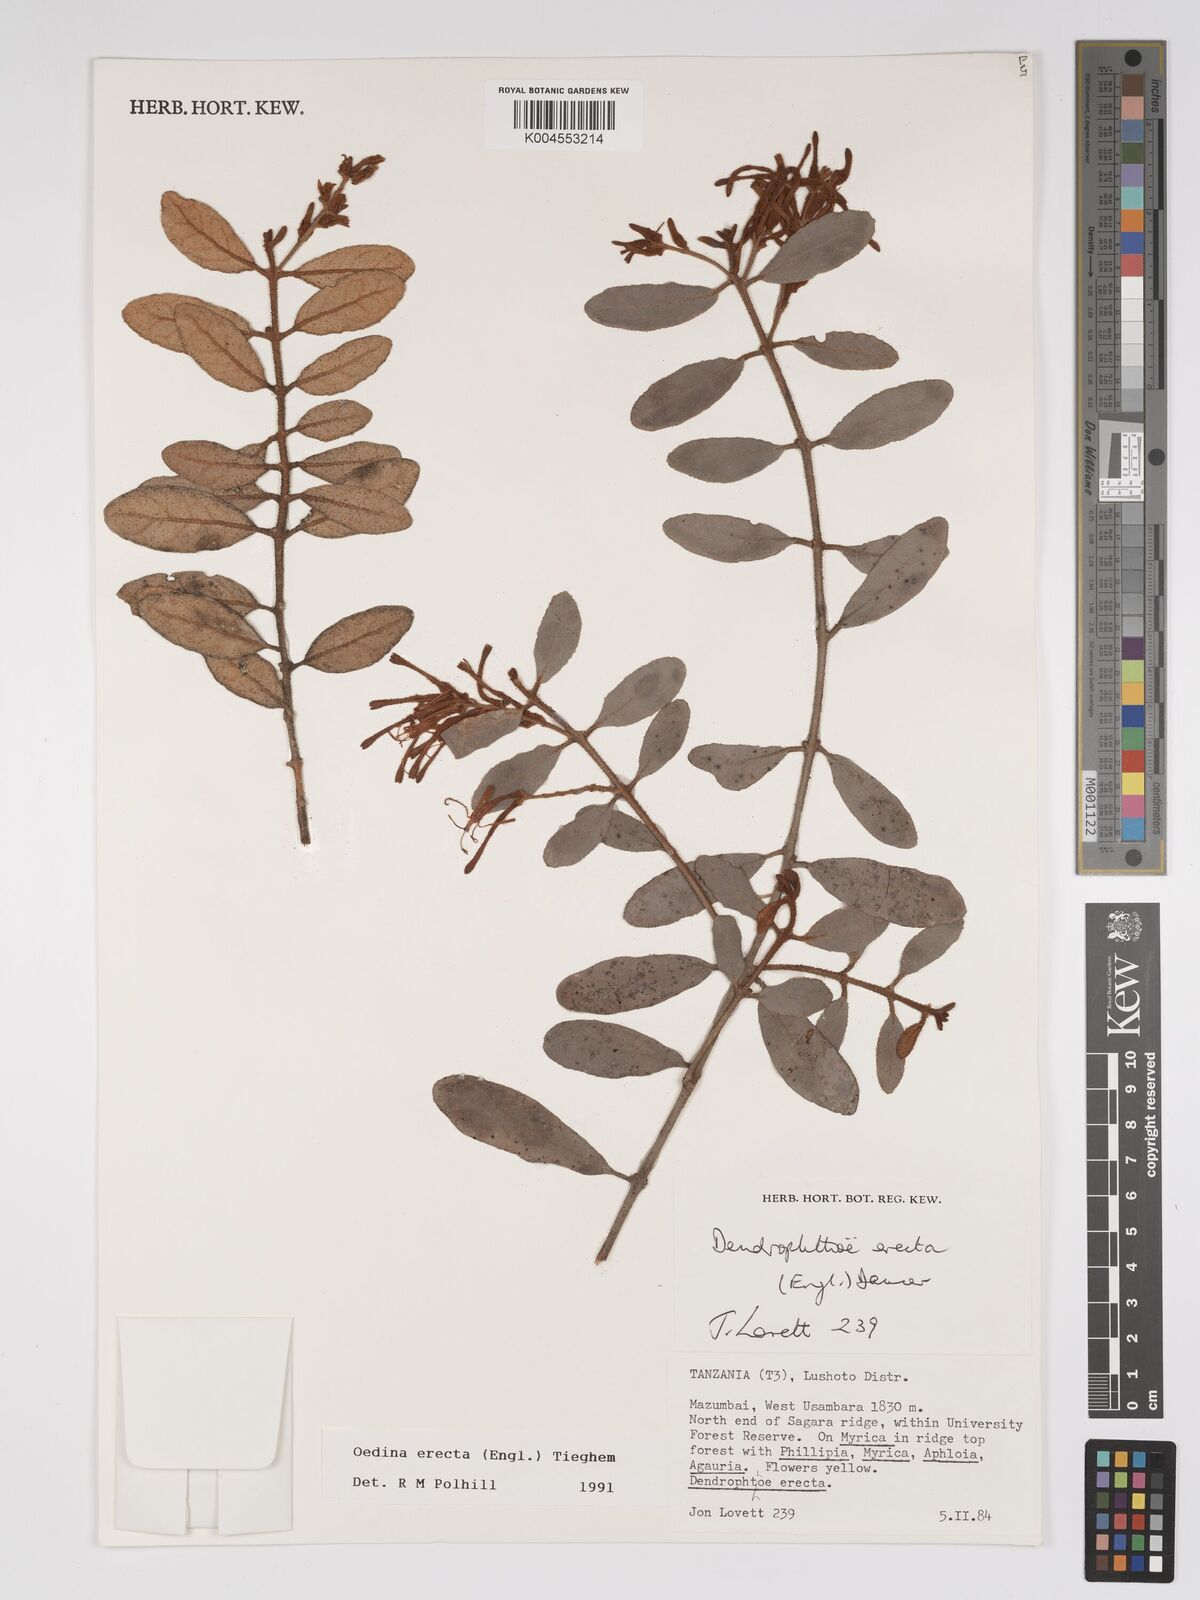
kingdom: Plantae
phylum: Tracheophyta
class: Magnoliopsida
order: Santalales
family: Loranthaceae
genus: Oedina
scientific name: Oedina erecta
